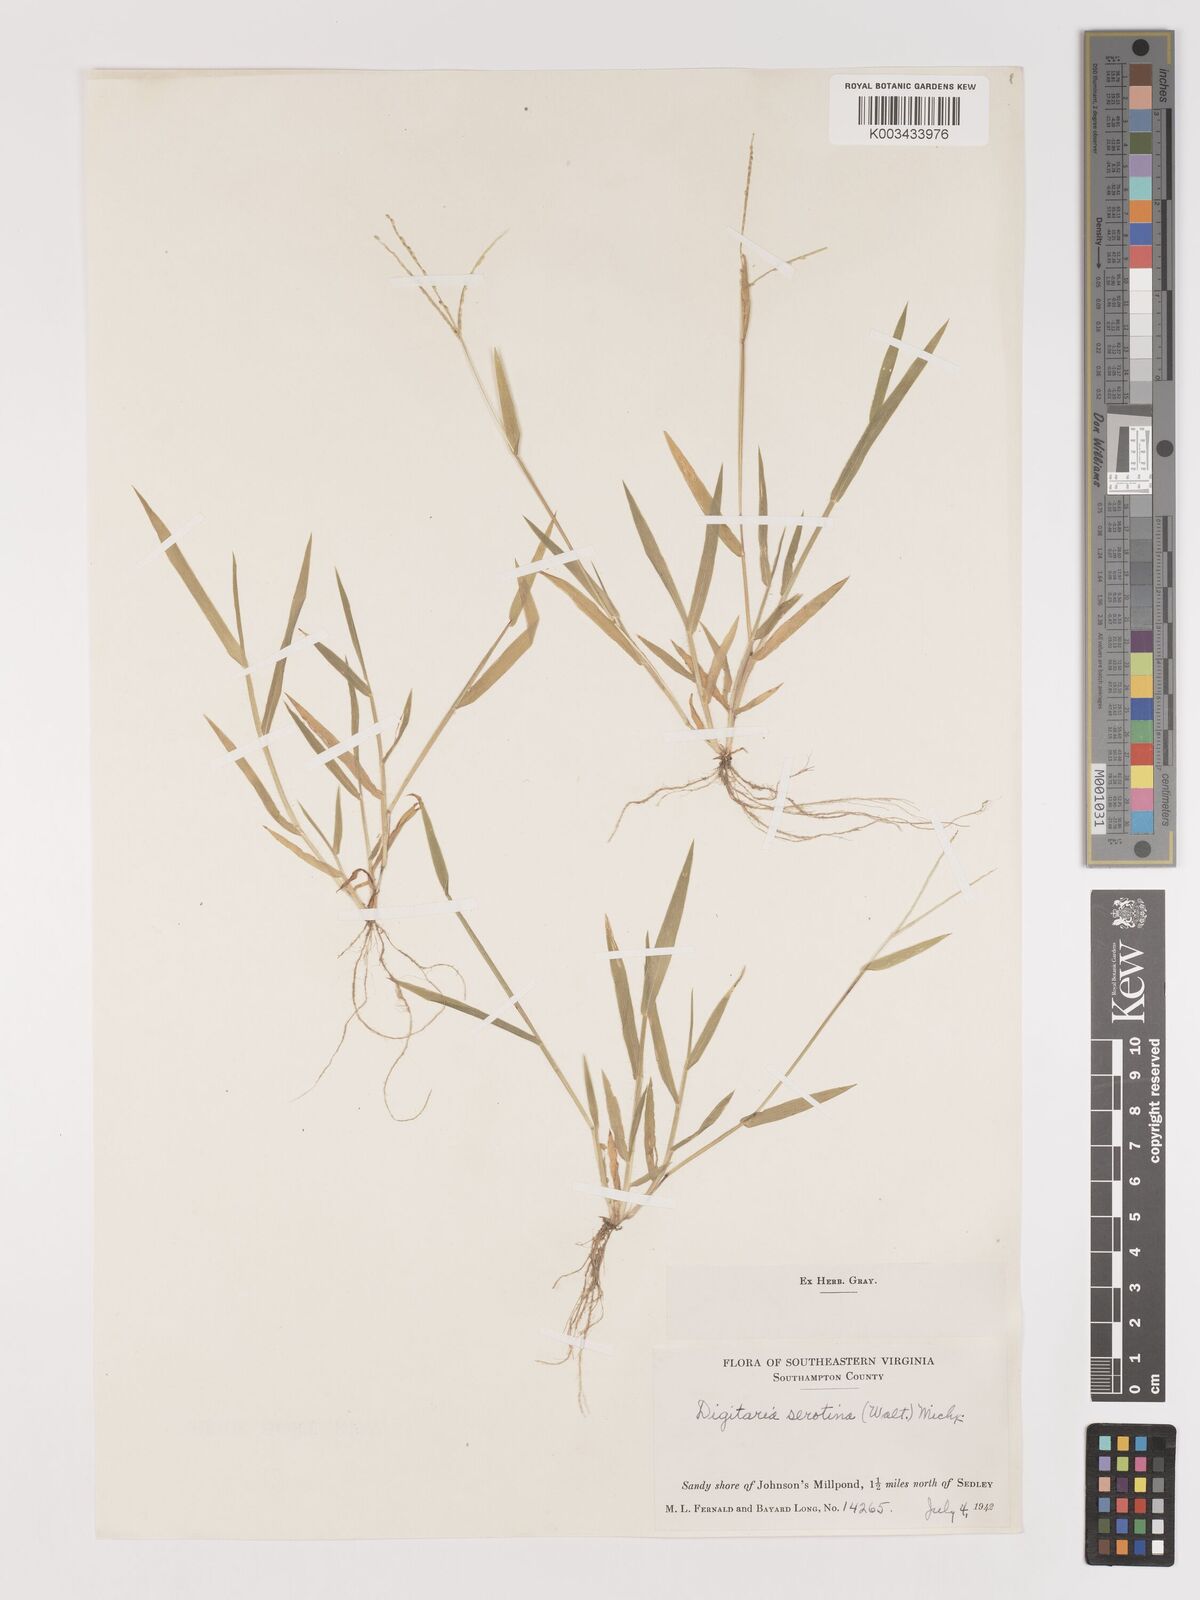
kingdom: Plantae
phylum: Tracheophyta
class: Liliopsida
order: Poales
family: Poaceae
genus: Digitaria
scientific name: Digitaria serotina
